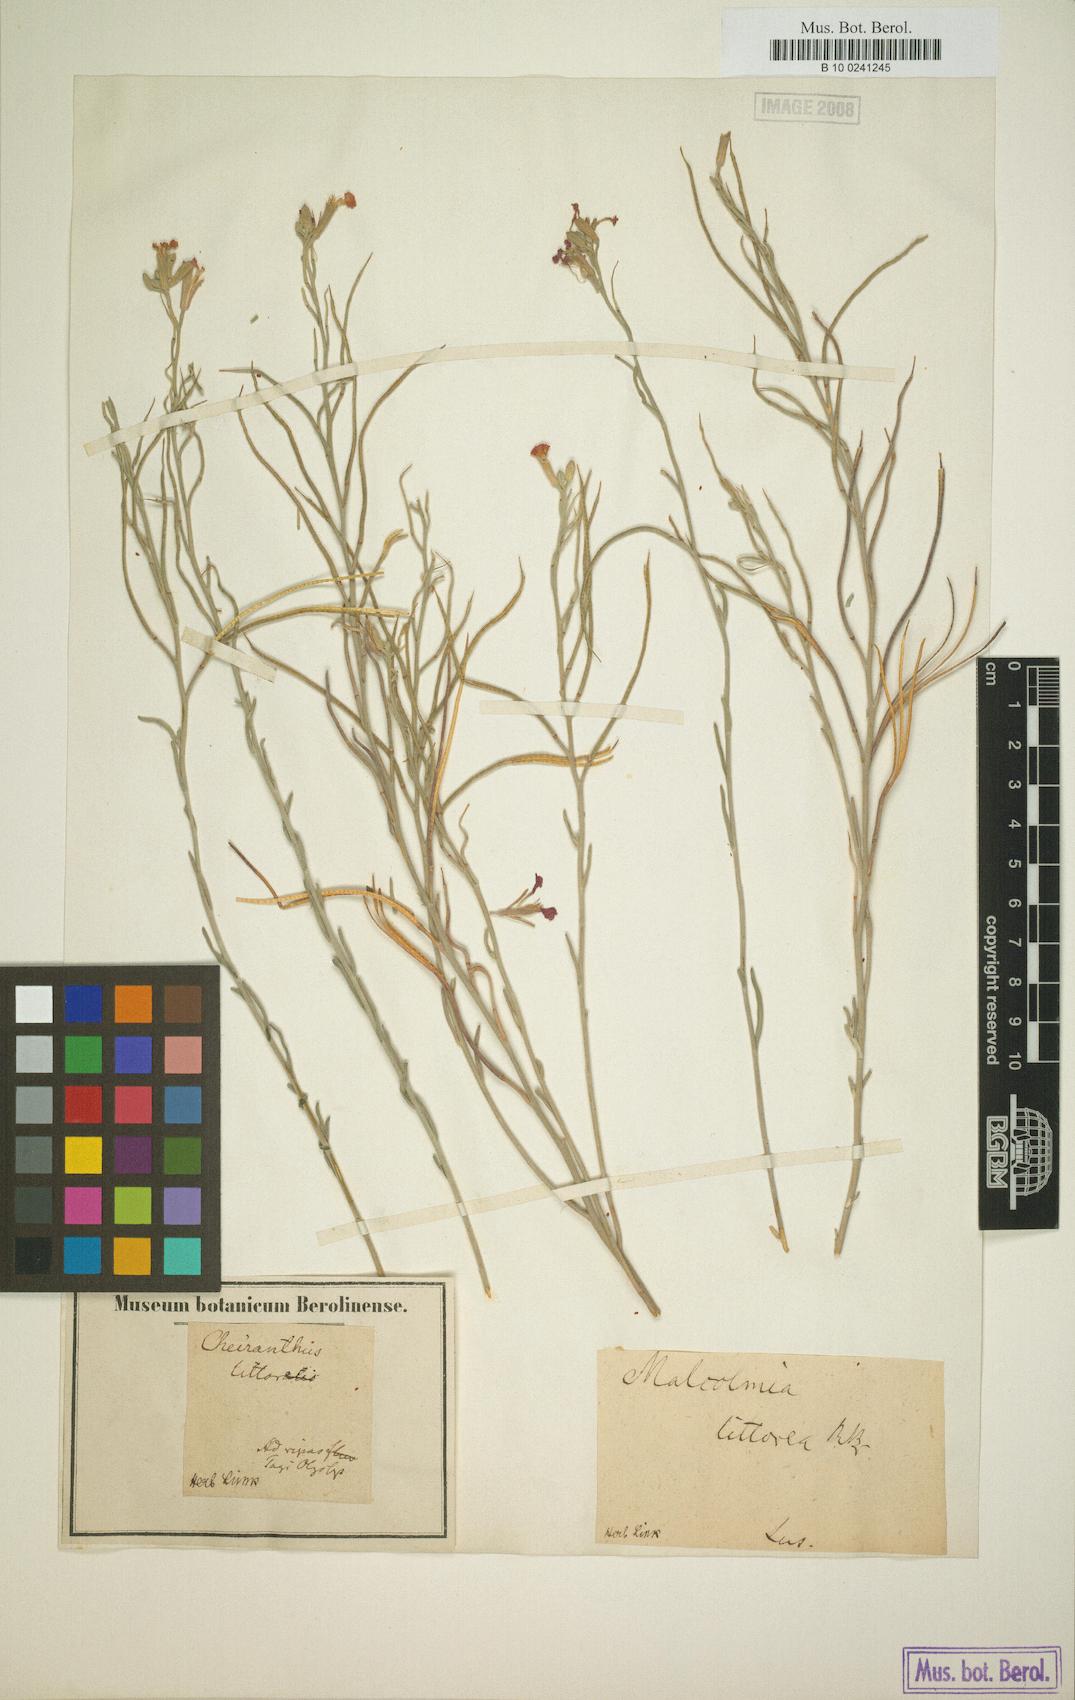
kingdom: Plantae
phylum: Tracheophyta
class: Magnoliopsida
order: Brassicales
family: Brassicaceae
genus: Marcuskochia
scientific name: Marcuskochia littorea
